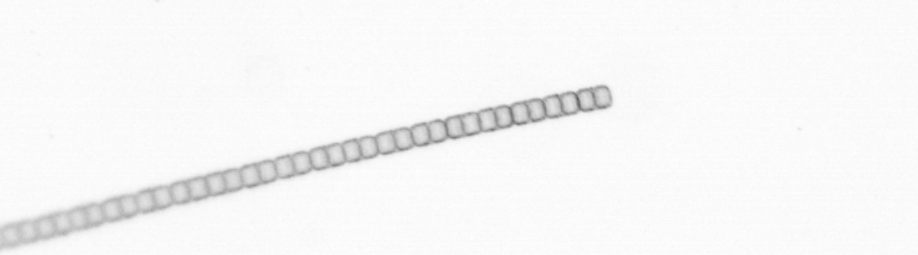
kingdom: Chromista
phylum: Ochrophyta
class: Bacillariophyceae
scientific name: Bacillariophyceae
